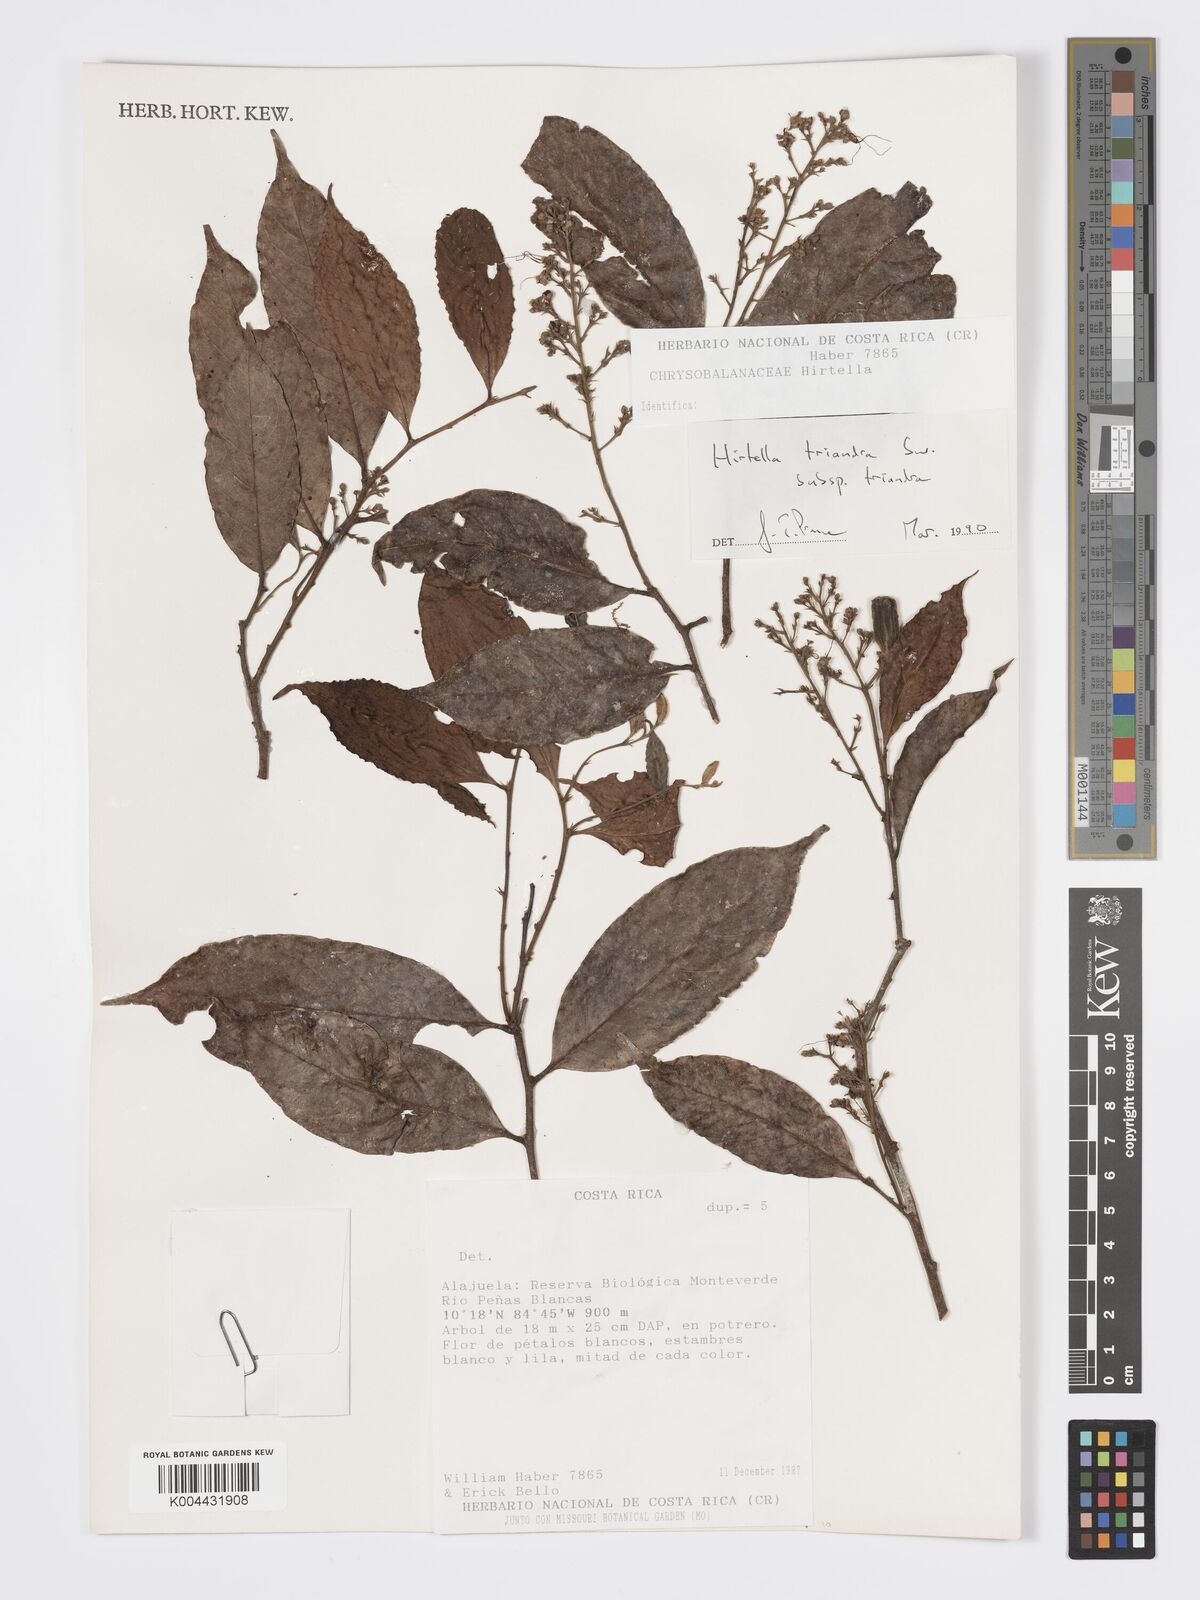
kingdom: Plantae
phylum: Tracheophyta
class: Magnoliopsida
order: Malpighiales
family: Chrysobalanaceae
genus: Hirtella
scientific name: Hirtella triandra
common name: Hairy plum
